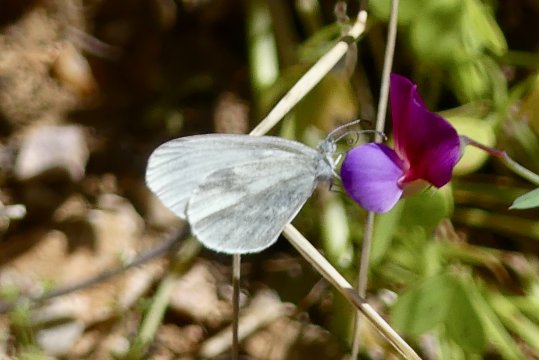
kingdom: Animalia
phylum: Arthropoda
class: Insecta
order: Lepidoptera
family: Pieridae
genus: Leptidea
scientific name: Leptidea sinapis
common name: Wood White
